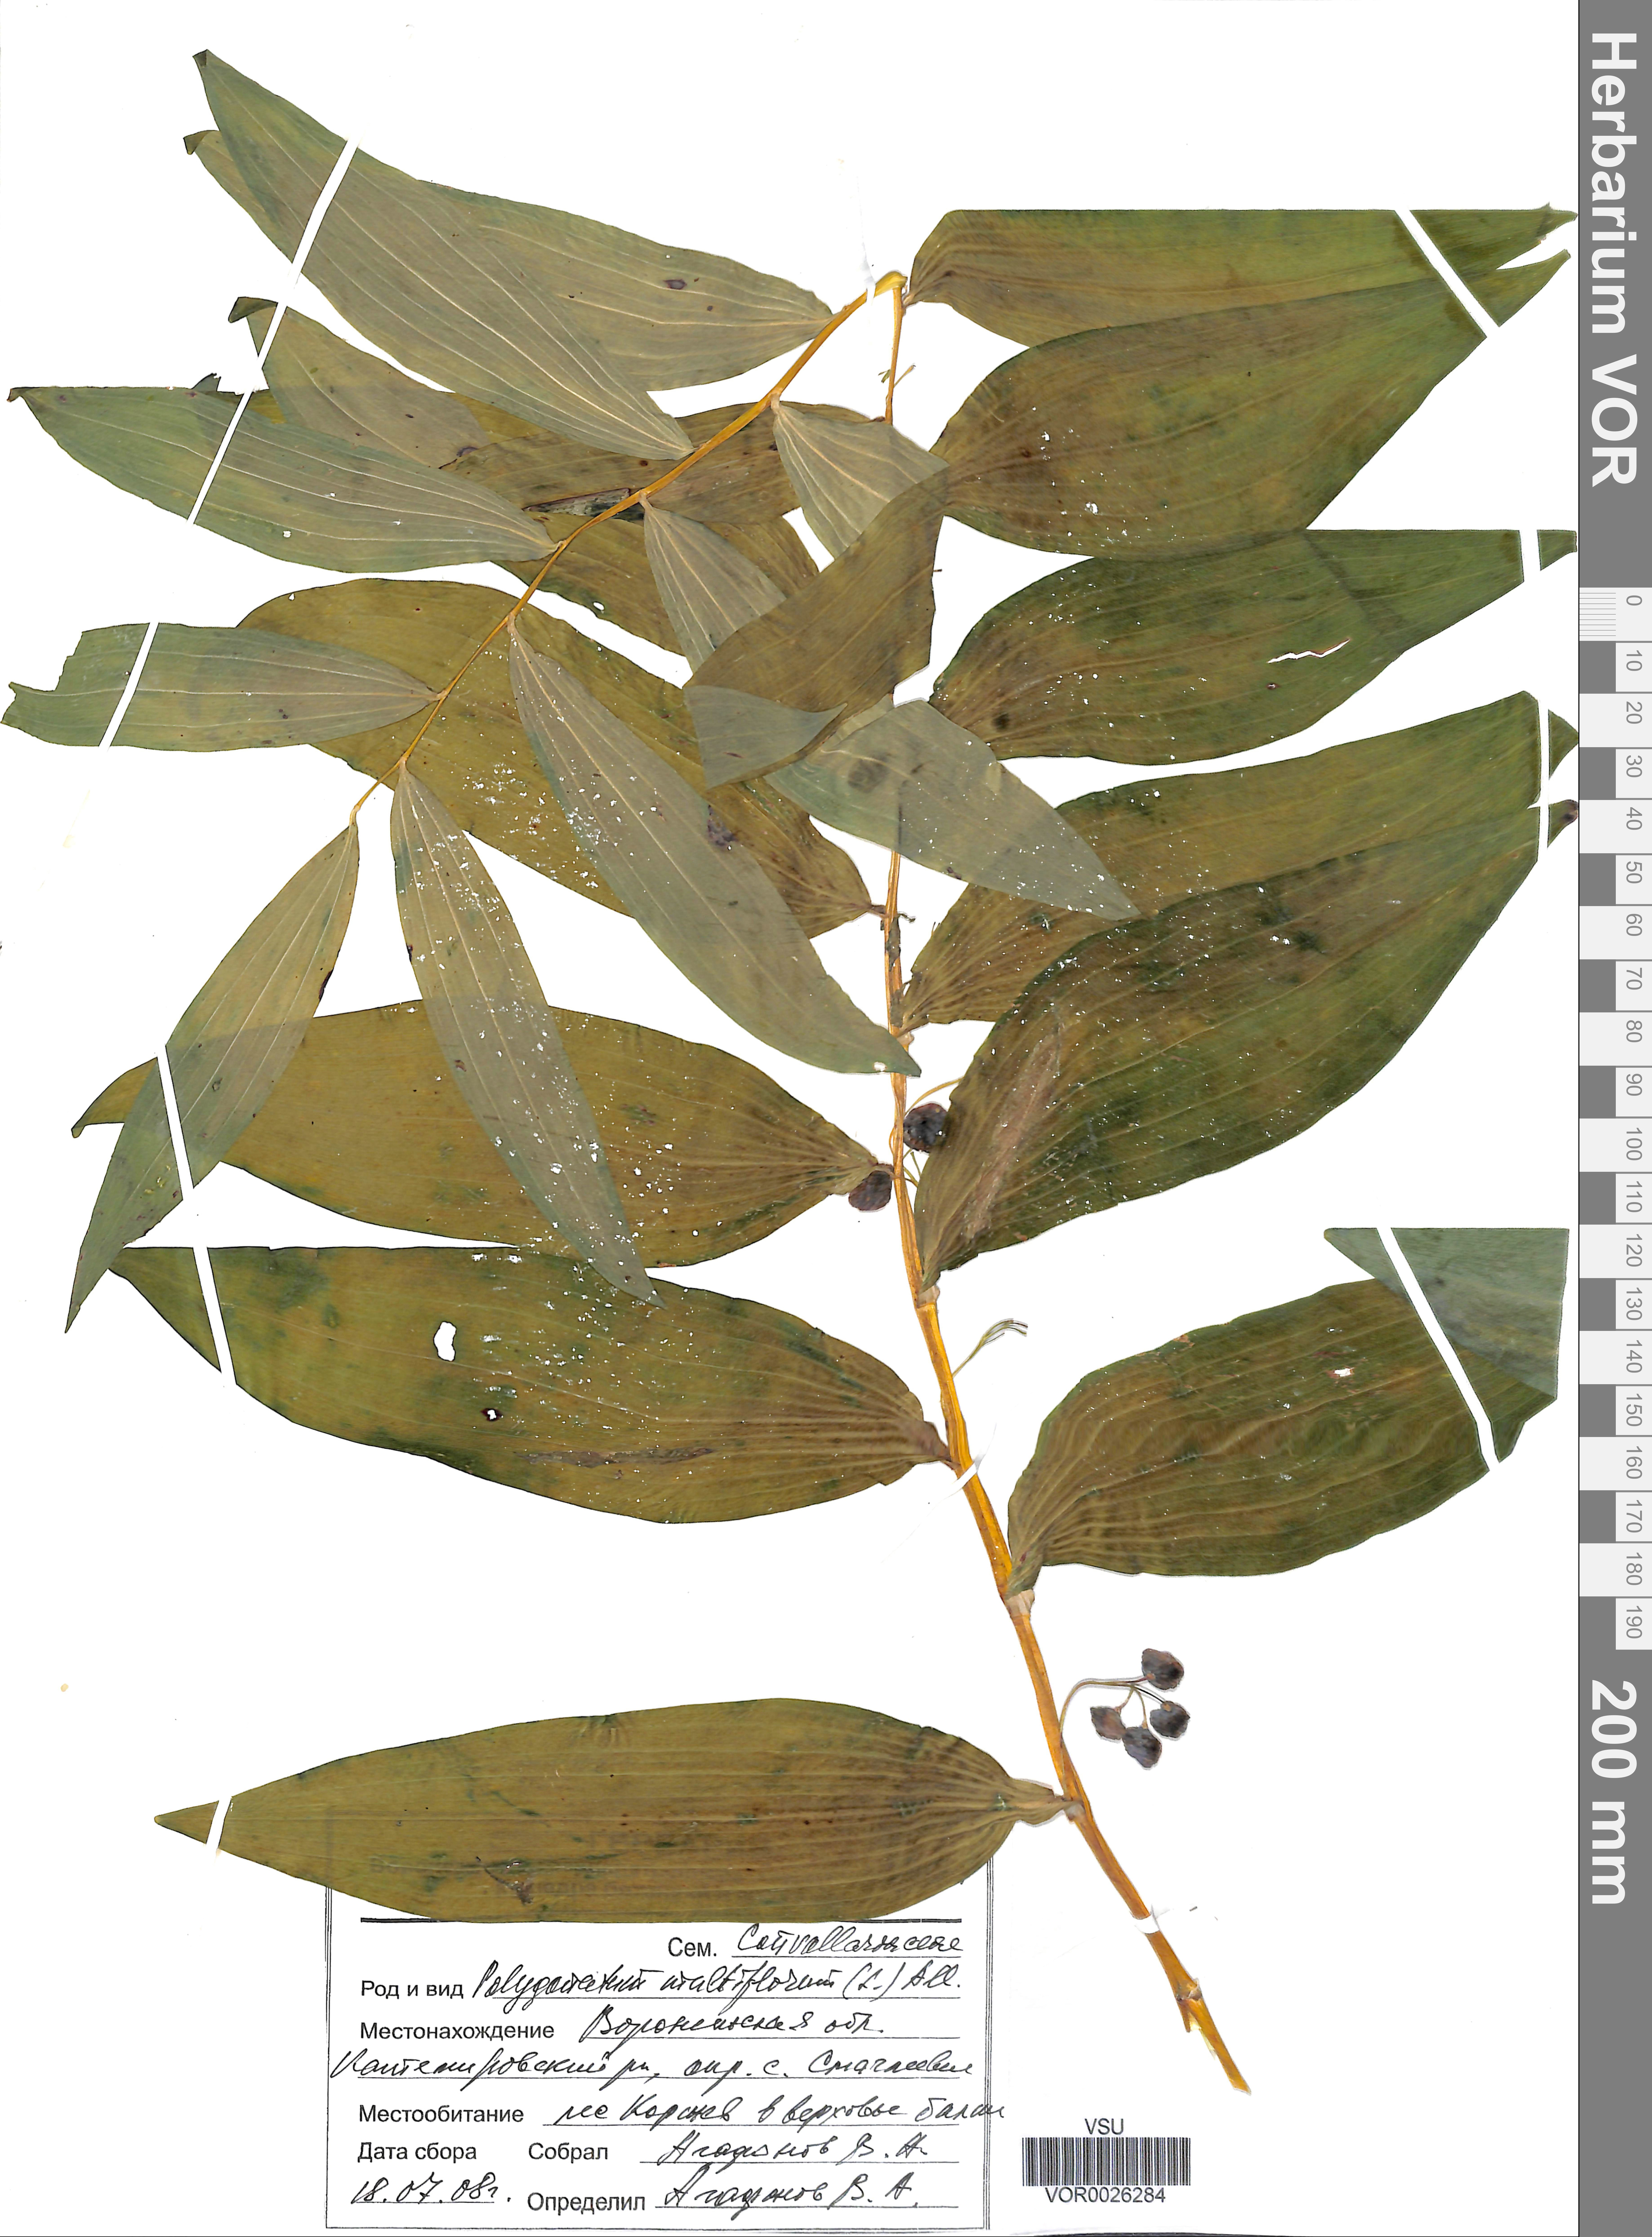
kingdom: Plantae
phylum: Tracheophyta
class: Liliopsida
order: Asparagales
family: Asparagaceae
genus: Polygonatum
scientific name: Polygonatum multiflorum
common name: Solomon's-seal
